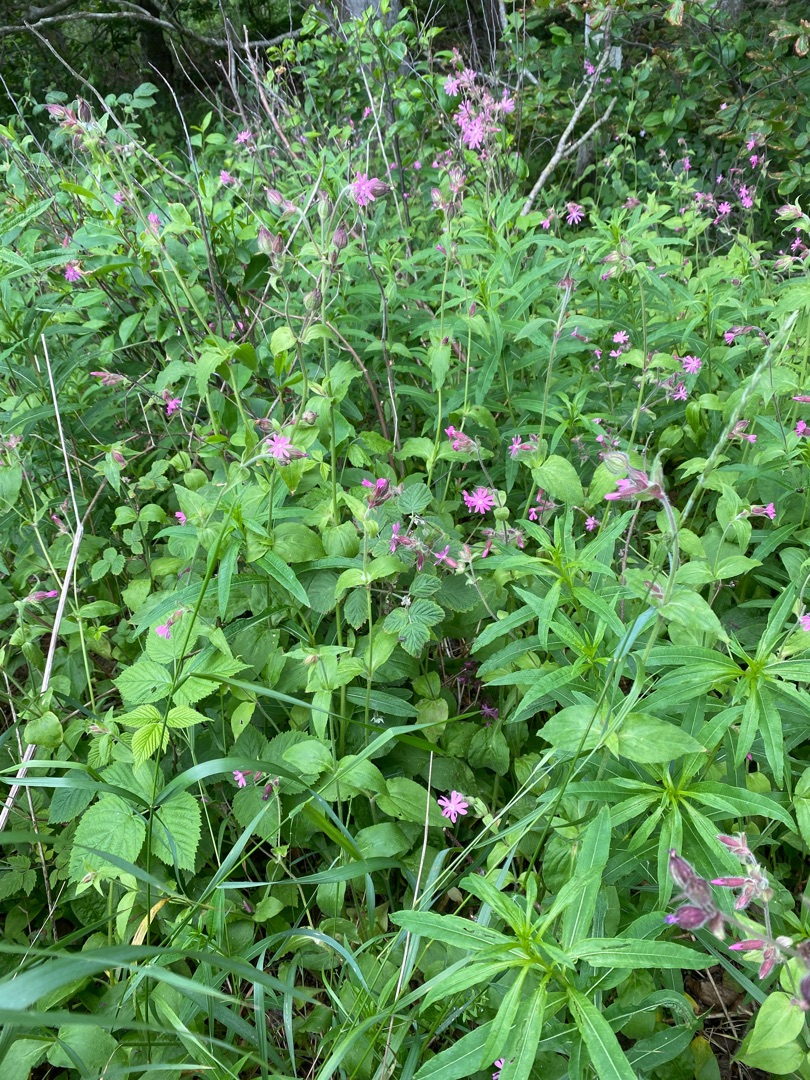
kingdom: Plantae
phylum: Tracheophyta
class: Magnoliopsida
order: Caryophyllales
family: Caryophyllaceae
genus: Silene
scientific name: Silene dioica
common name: Dagpragtstjerne
